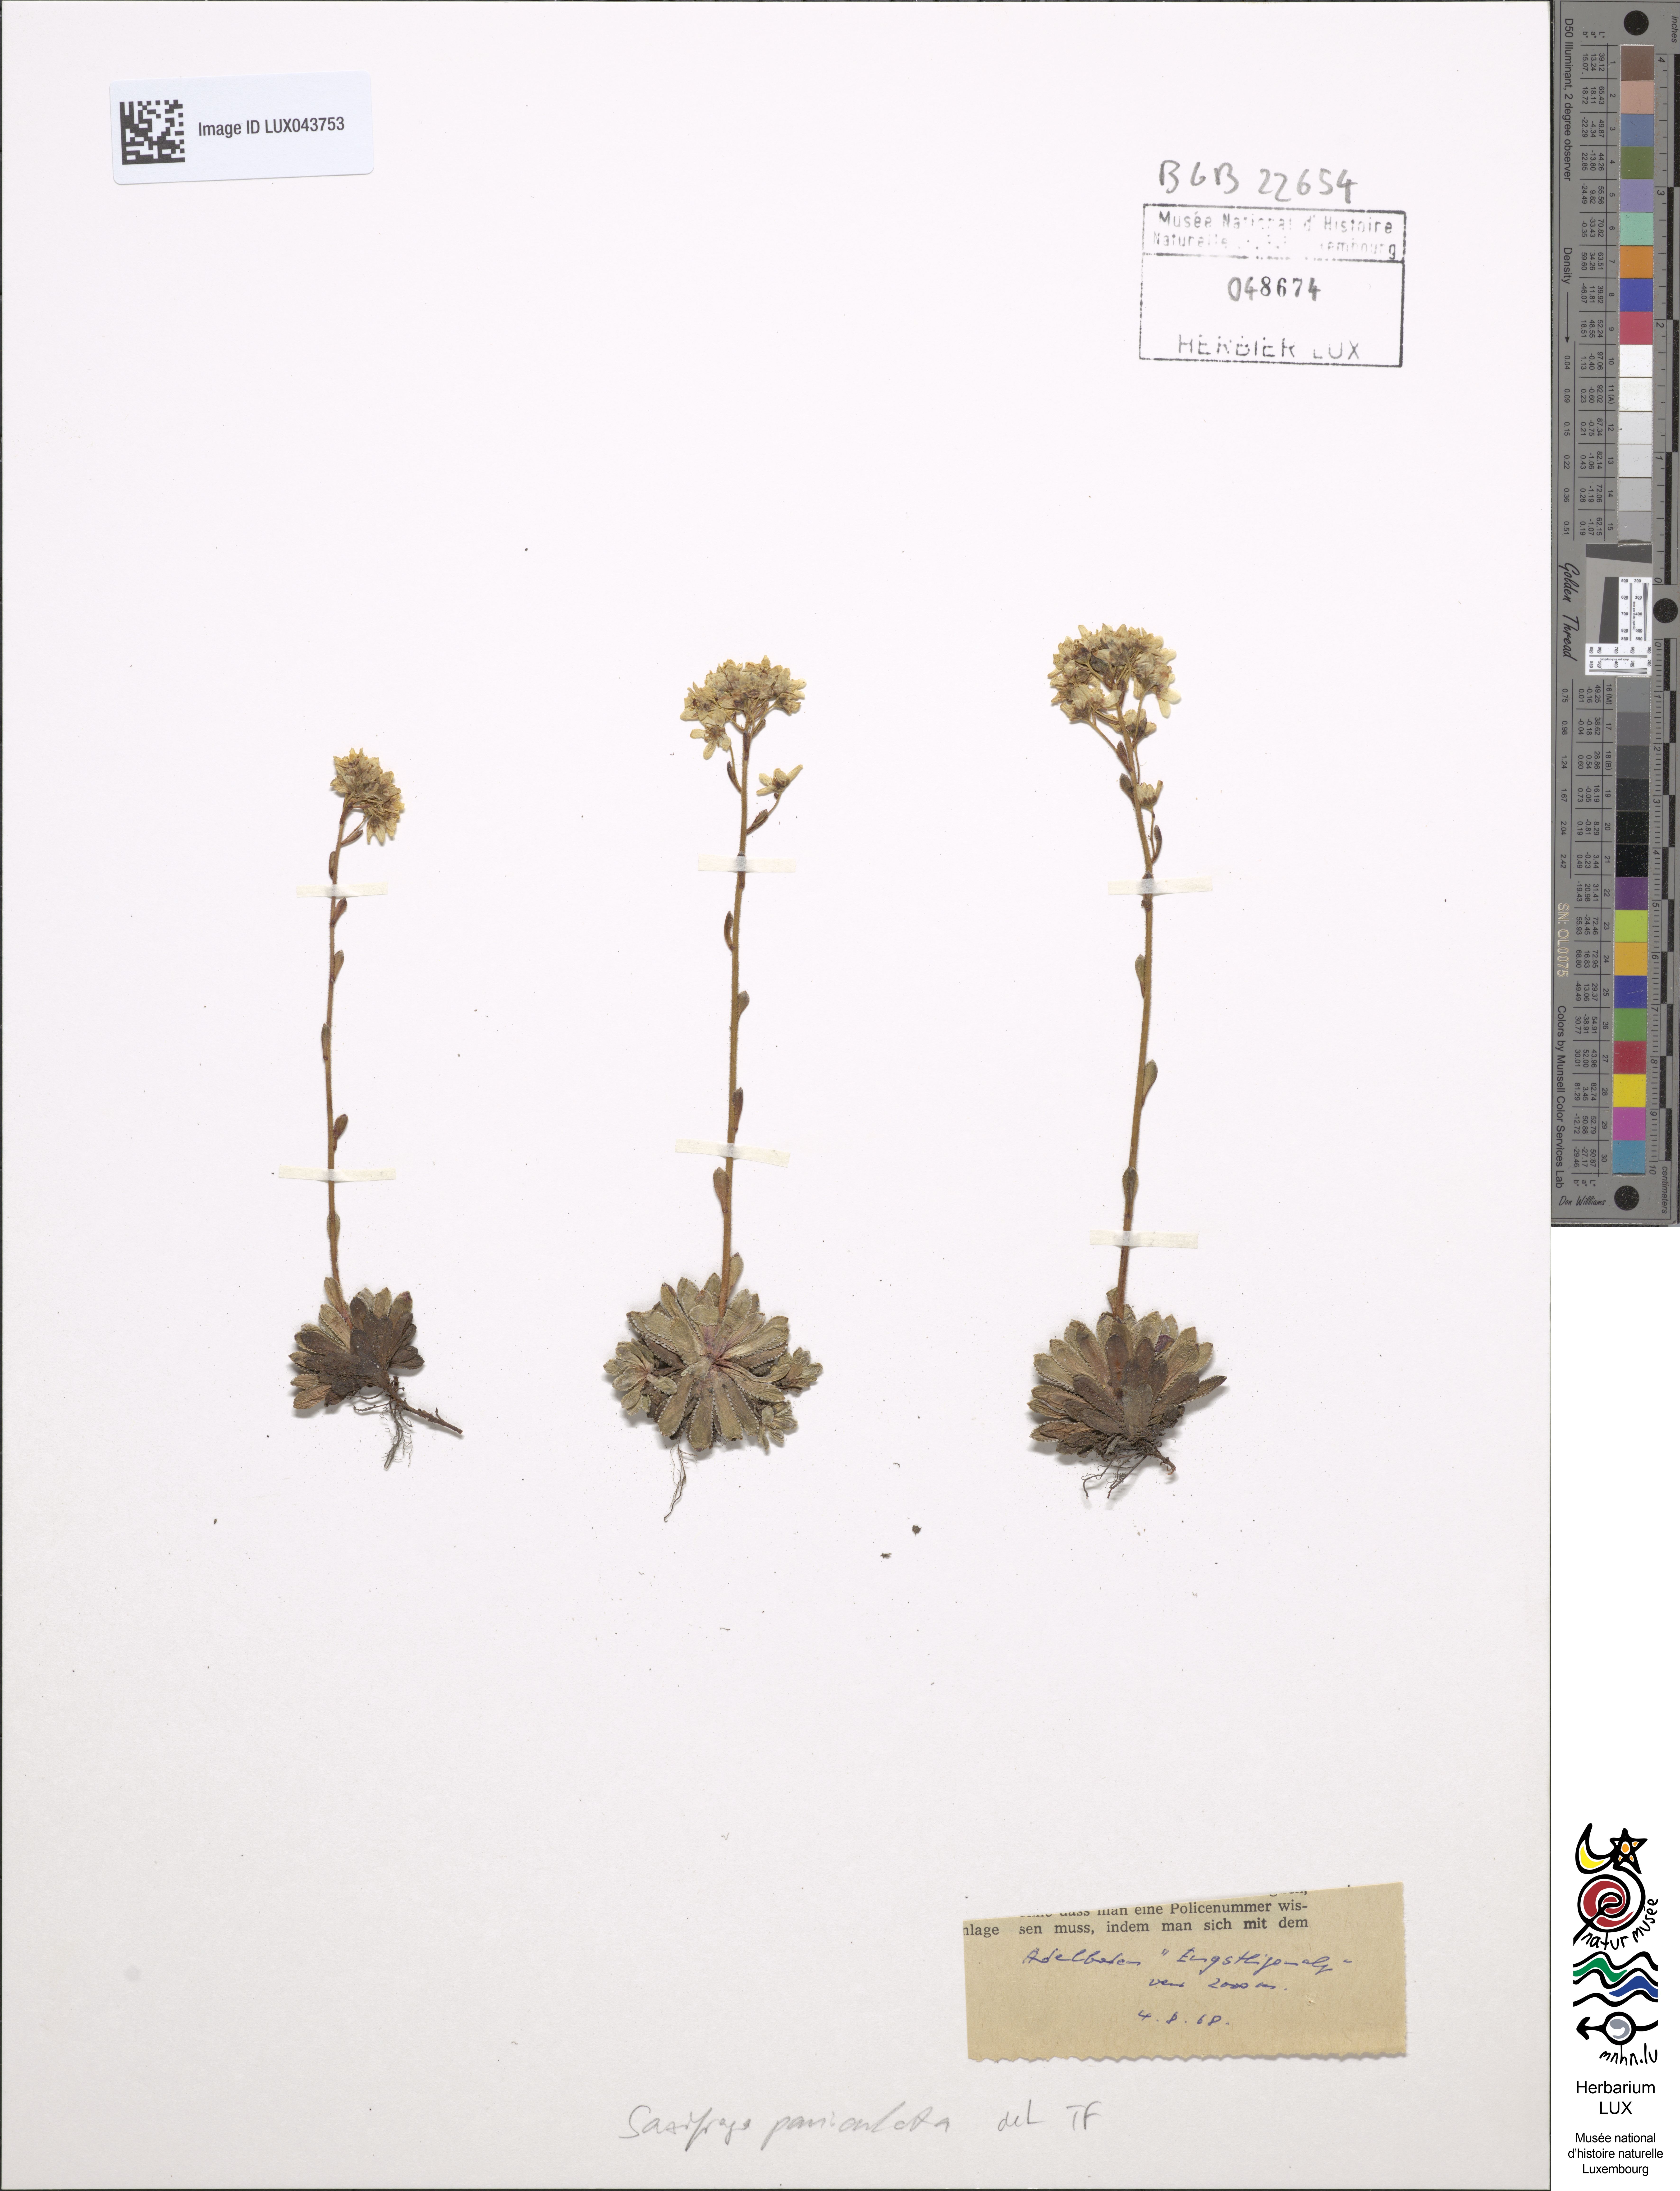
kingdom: Plantae
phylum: Tracheophyta
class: Magnoliopsida
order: Saxifragales
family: Saxifragaceae
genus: Saxifraga
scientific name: Saxifraga paniculata
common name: Livelong saxifrage
